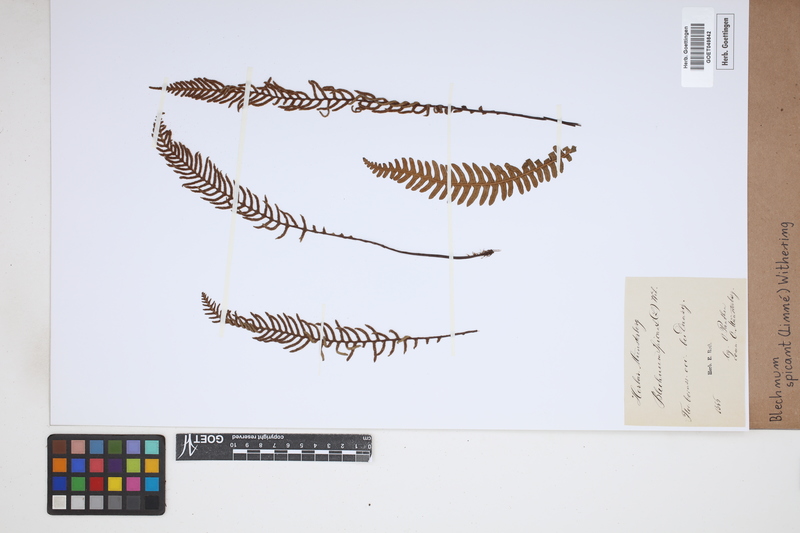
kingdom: Plantae
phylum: Tracheophyta
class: Polypodiopsida
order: Polypodiales
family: Blechnaceae
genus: Struthiopteris
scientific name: Struthiopteris spicant
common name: Deer fern
